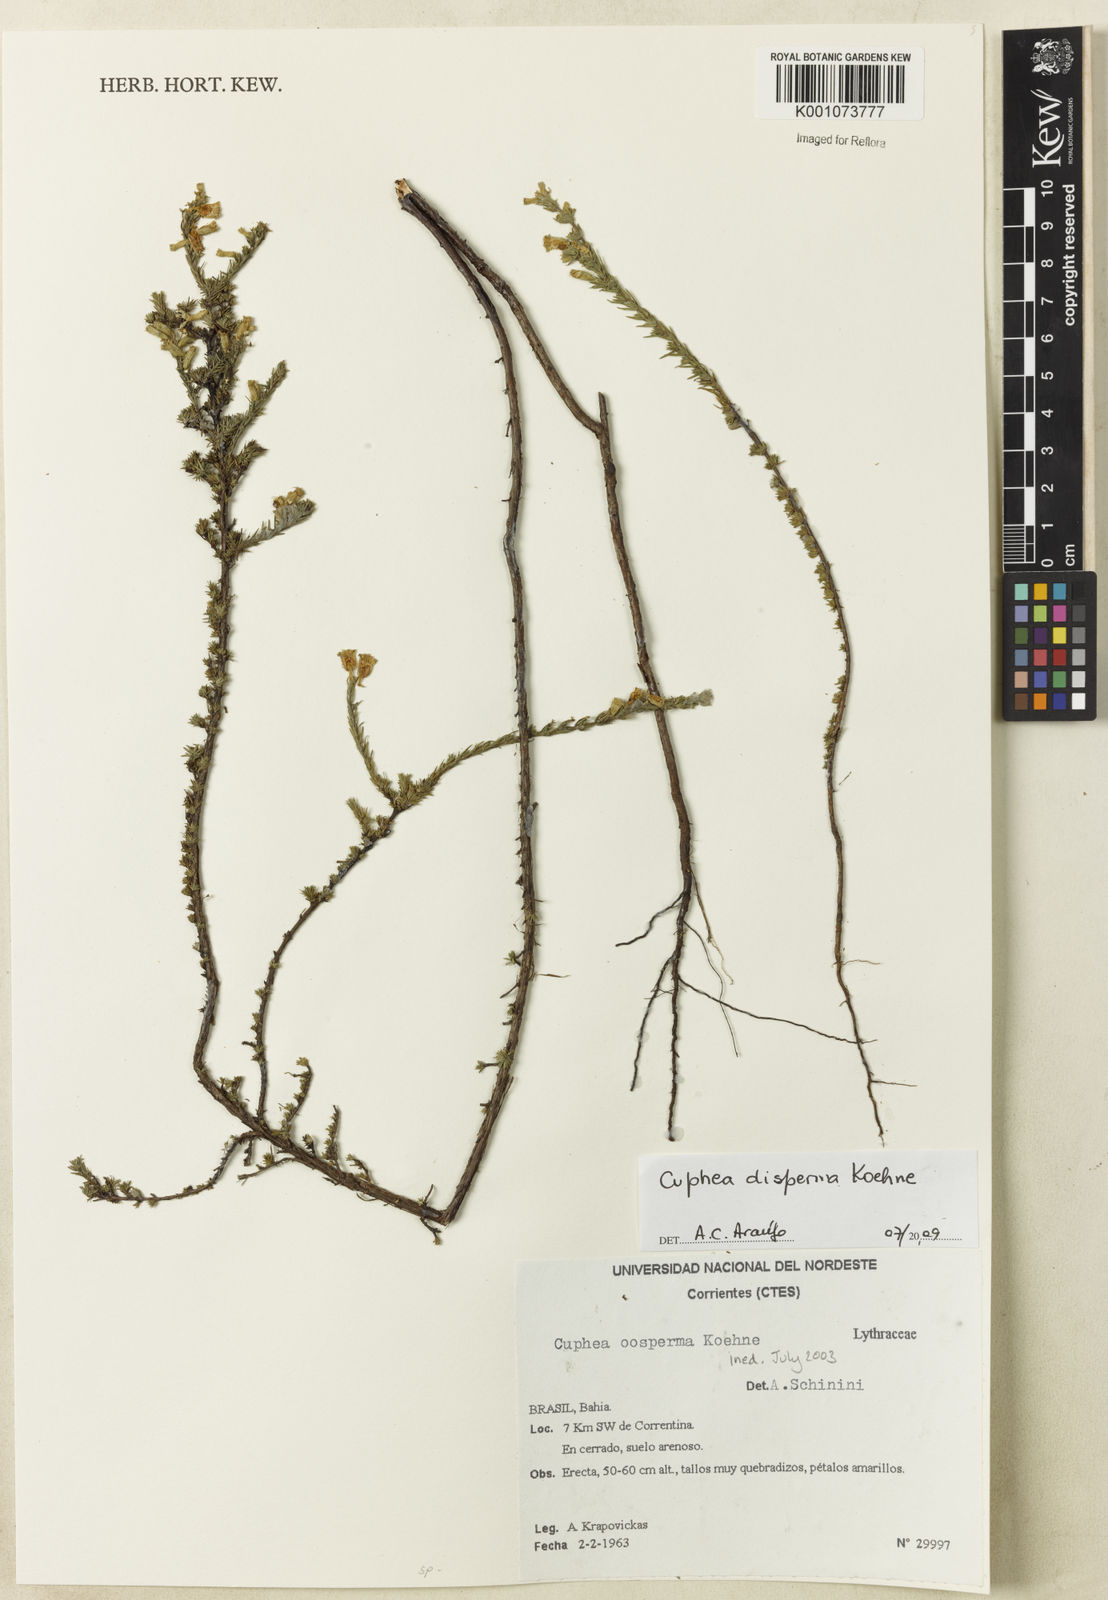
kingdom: Plantae
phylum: Tracheophyta
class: Magnoliopsida
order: Myrtales
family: Lythraceae
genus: Cuphea
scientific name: Cuphea disperma
